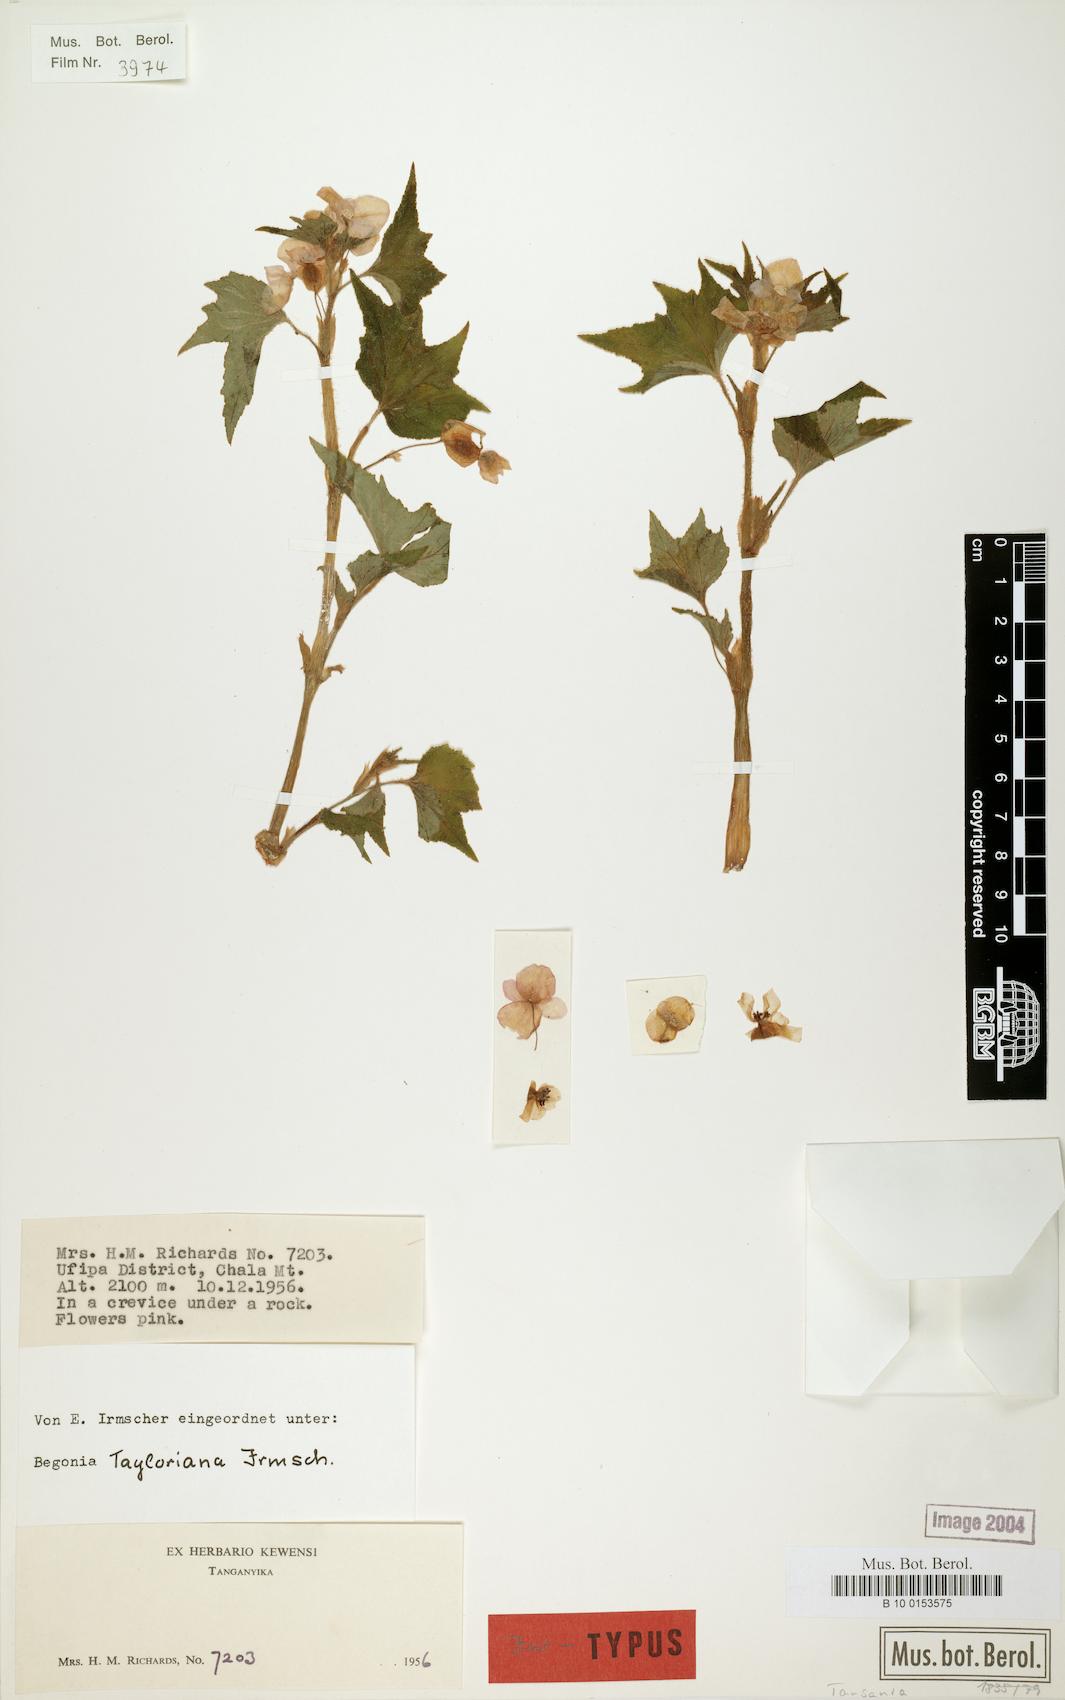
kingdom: Plantae
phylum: Tracheophyta
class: Magnoliopsida
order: Cucurbitales
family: Begoniaceae
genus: Begonia
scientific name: Begonia tayloriana
